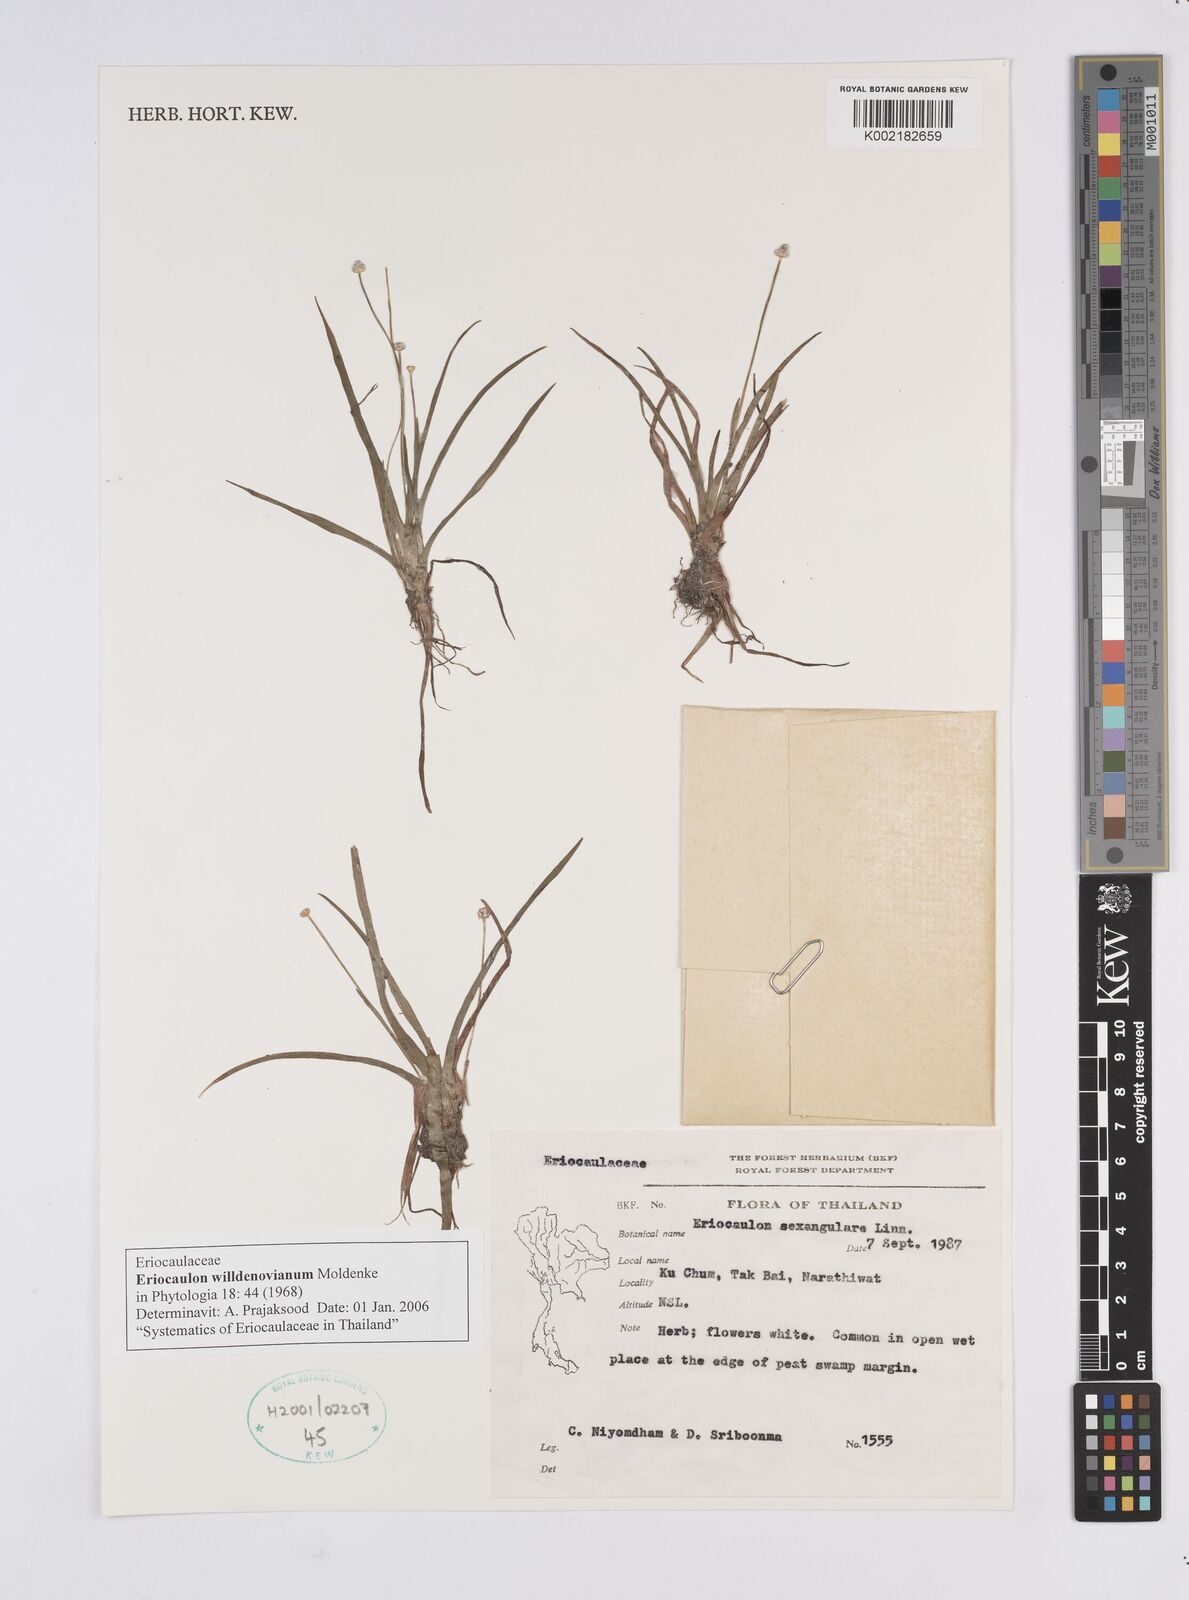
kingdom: Plantae
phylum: Tracheophyta
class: Liliopsida
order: Poales
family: Eriocaulaceae
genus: Eriocaulon
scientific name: Eriocaulon willdenovianum
